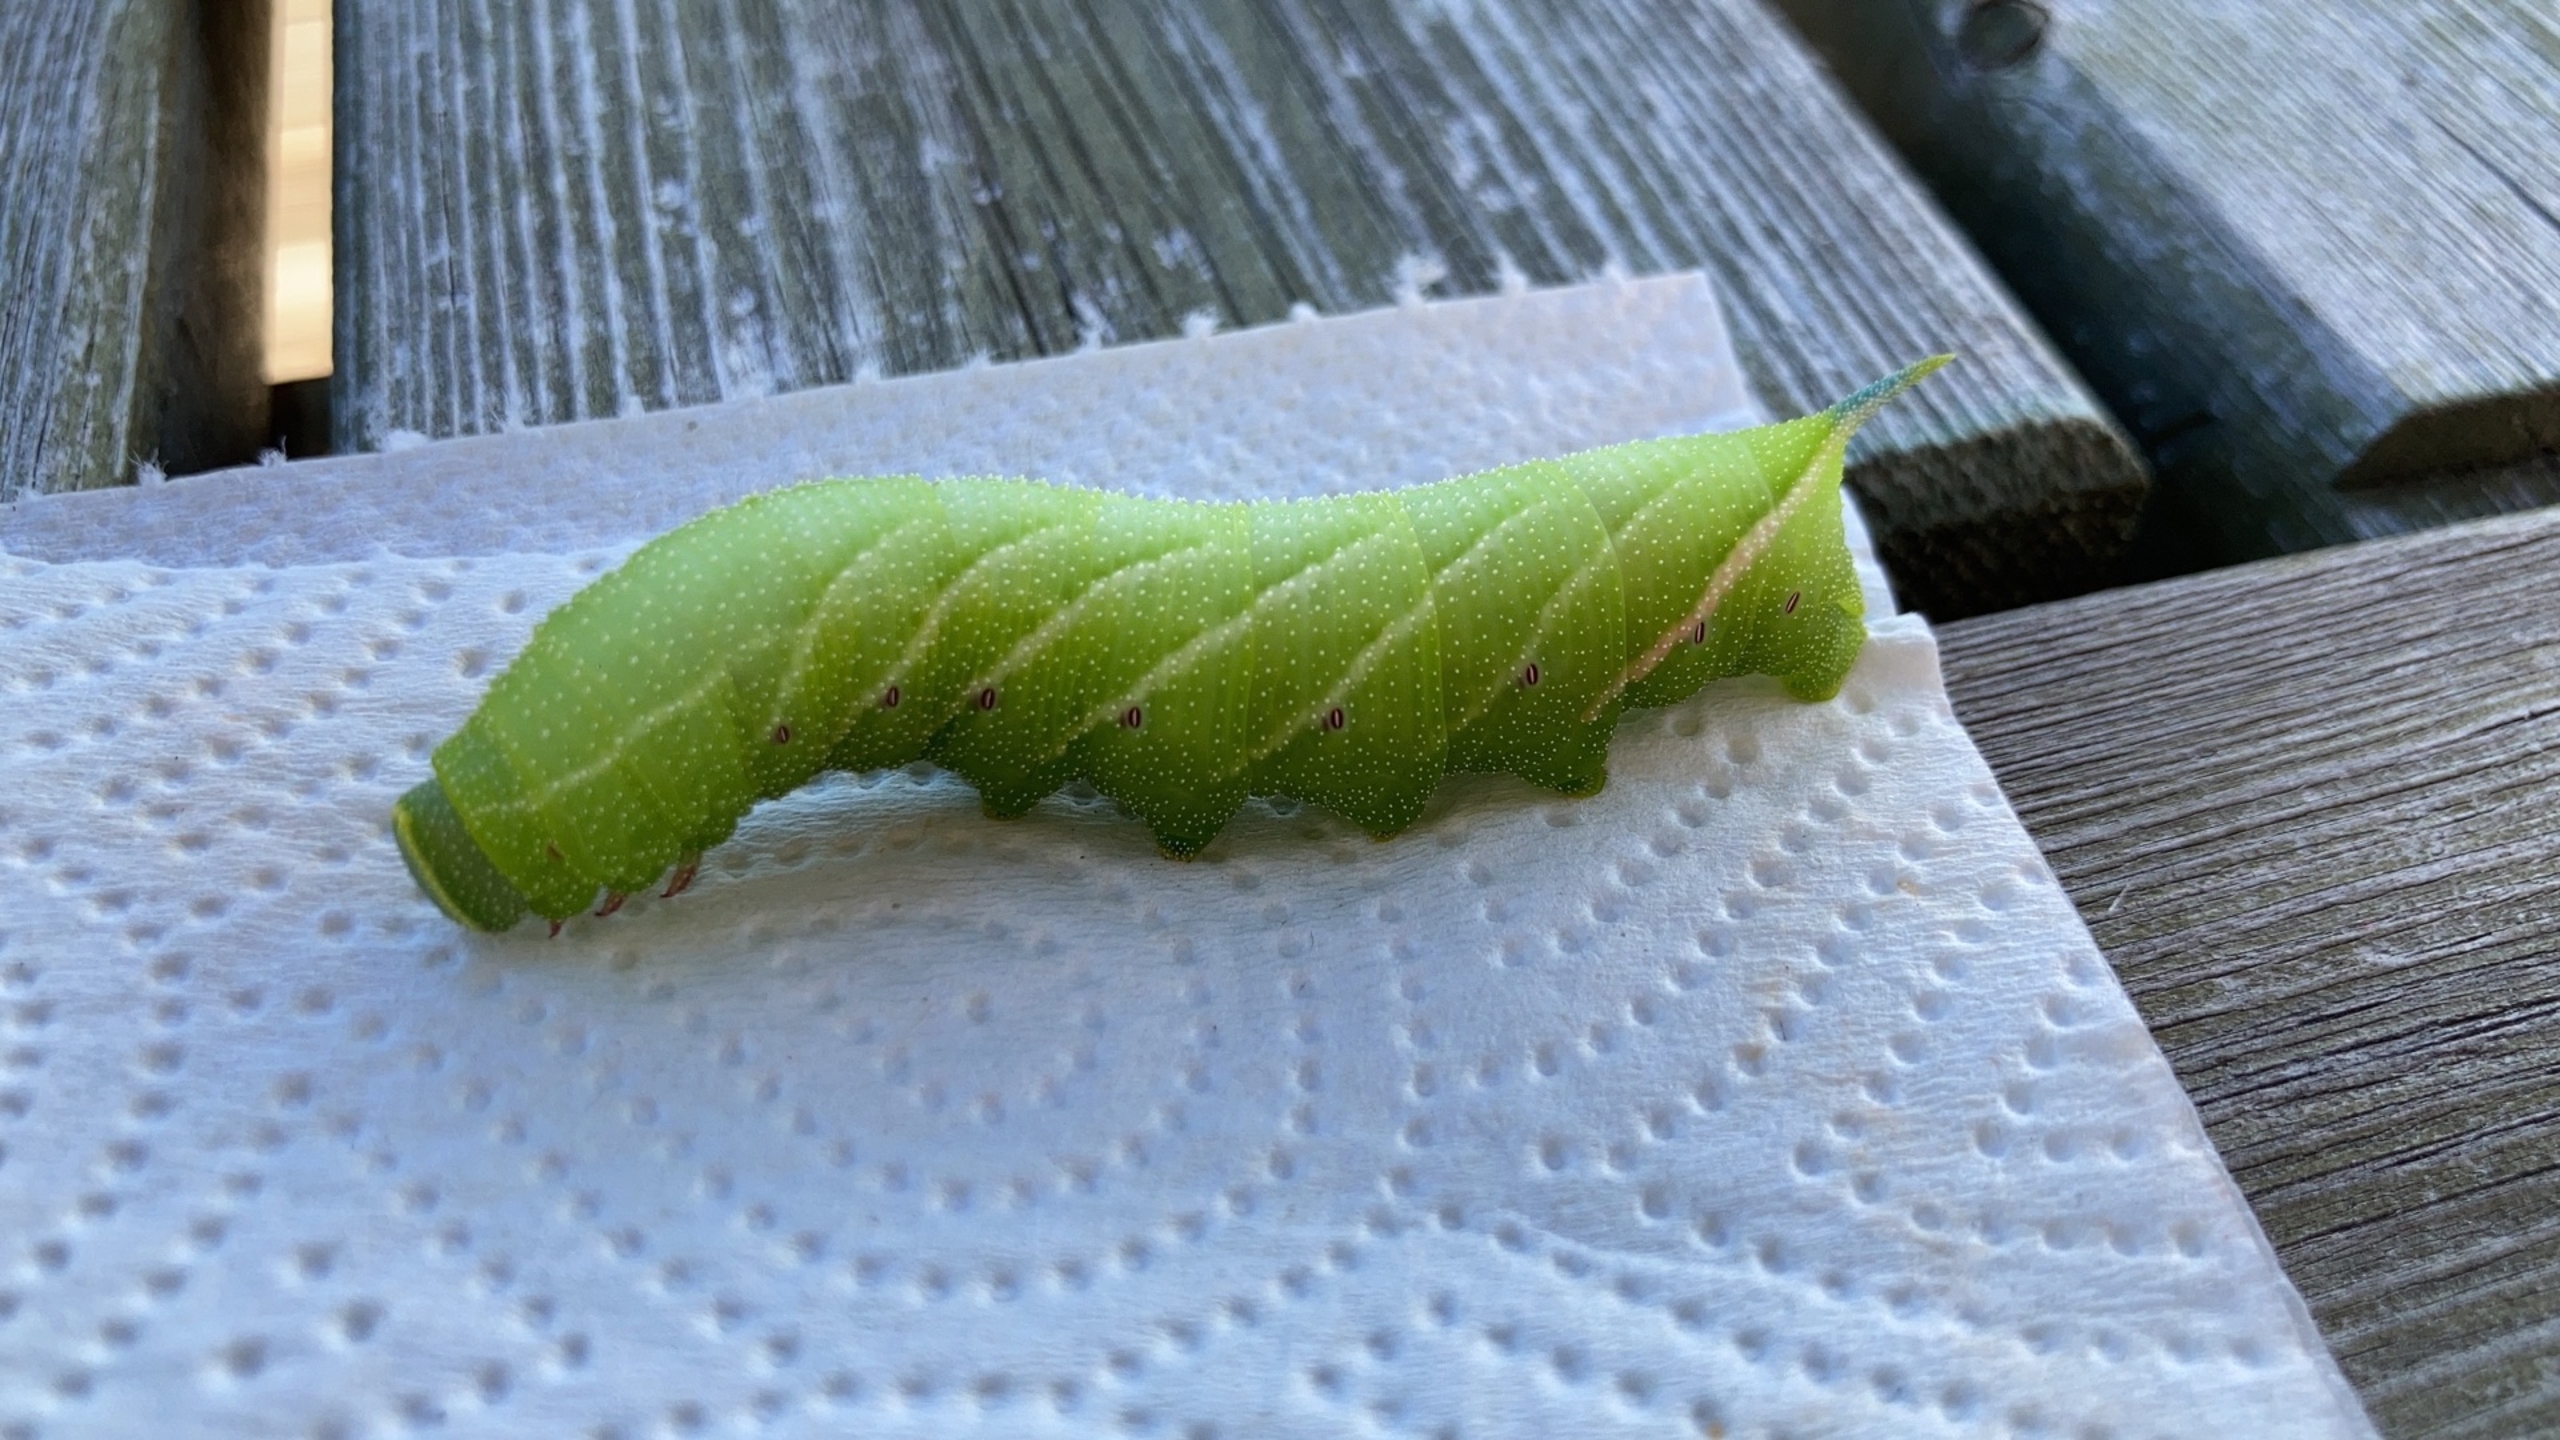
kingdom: Animalia
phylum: Arthropoda
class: Insecta
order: Lepidoptera
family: Sphingidae
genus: Smerinthus
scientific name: Smerinthus ocellata
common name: Aftenpåfugleøje
